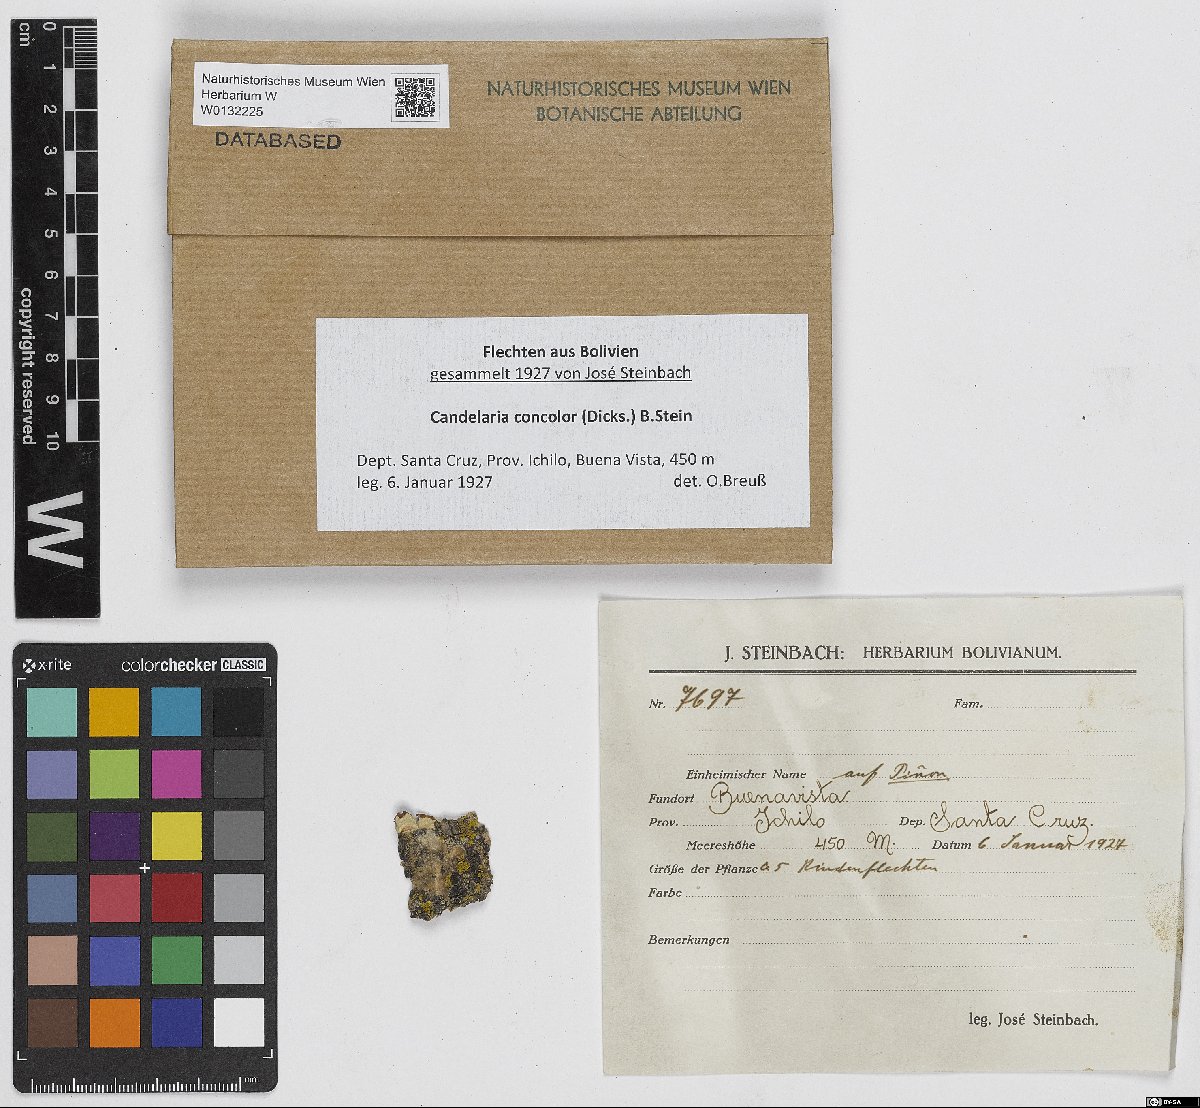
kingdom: Fungi
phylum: Ascomycota
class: Candelariomycetes
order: Candelariales
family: Candelariaceae
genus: Candelaria
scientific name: Candelaria concolor
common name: Candleflame lichen
